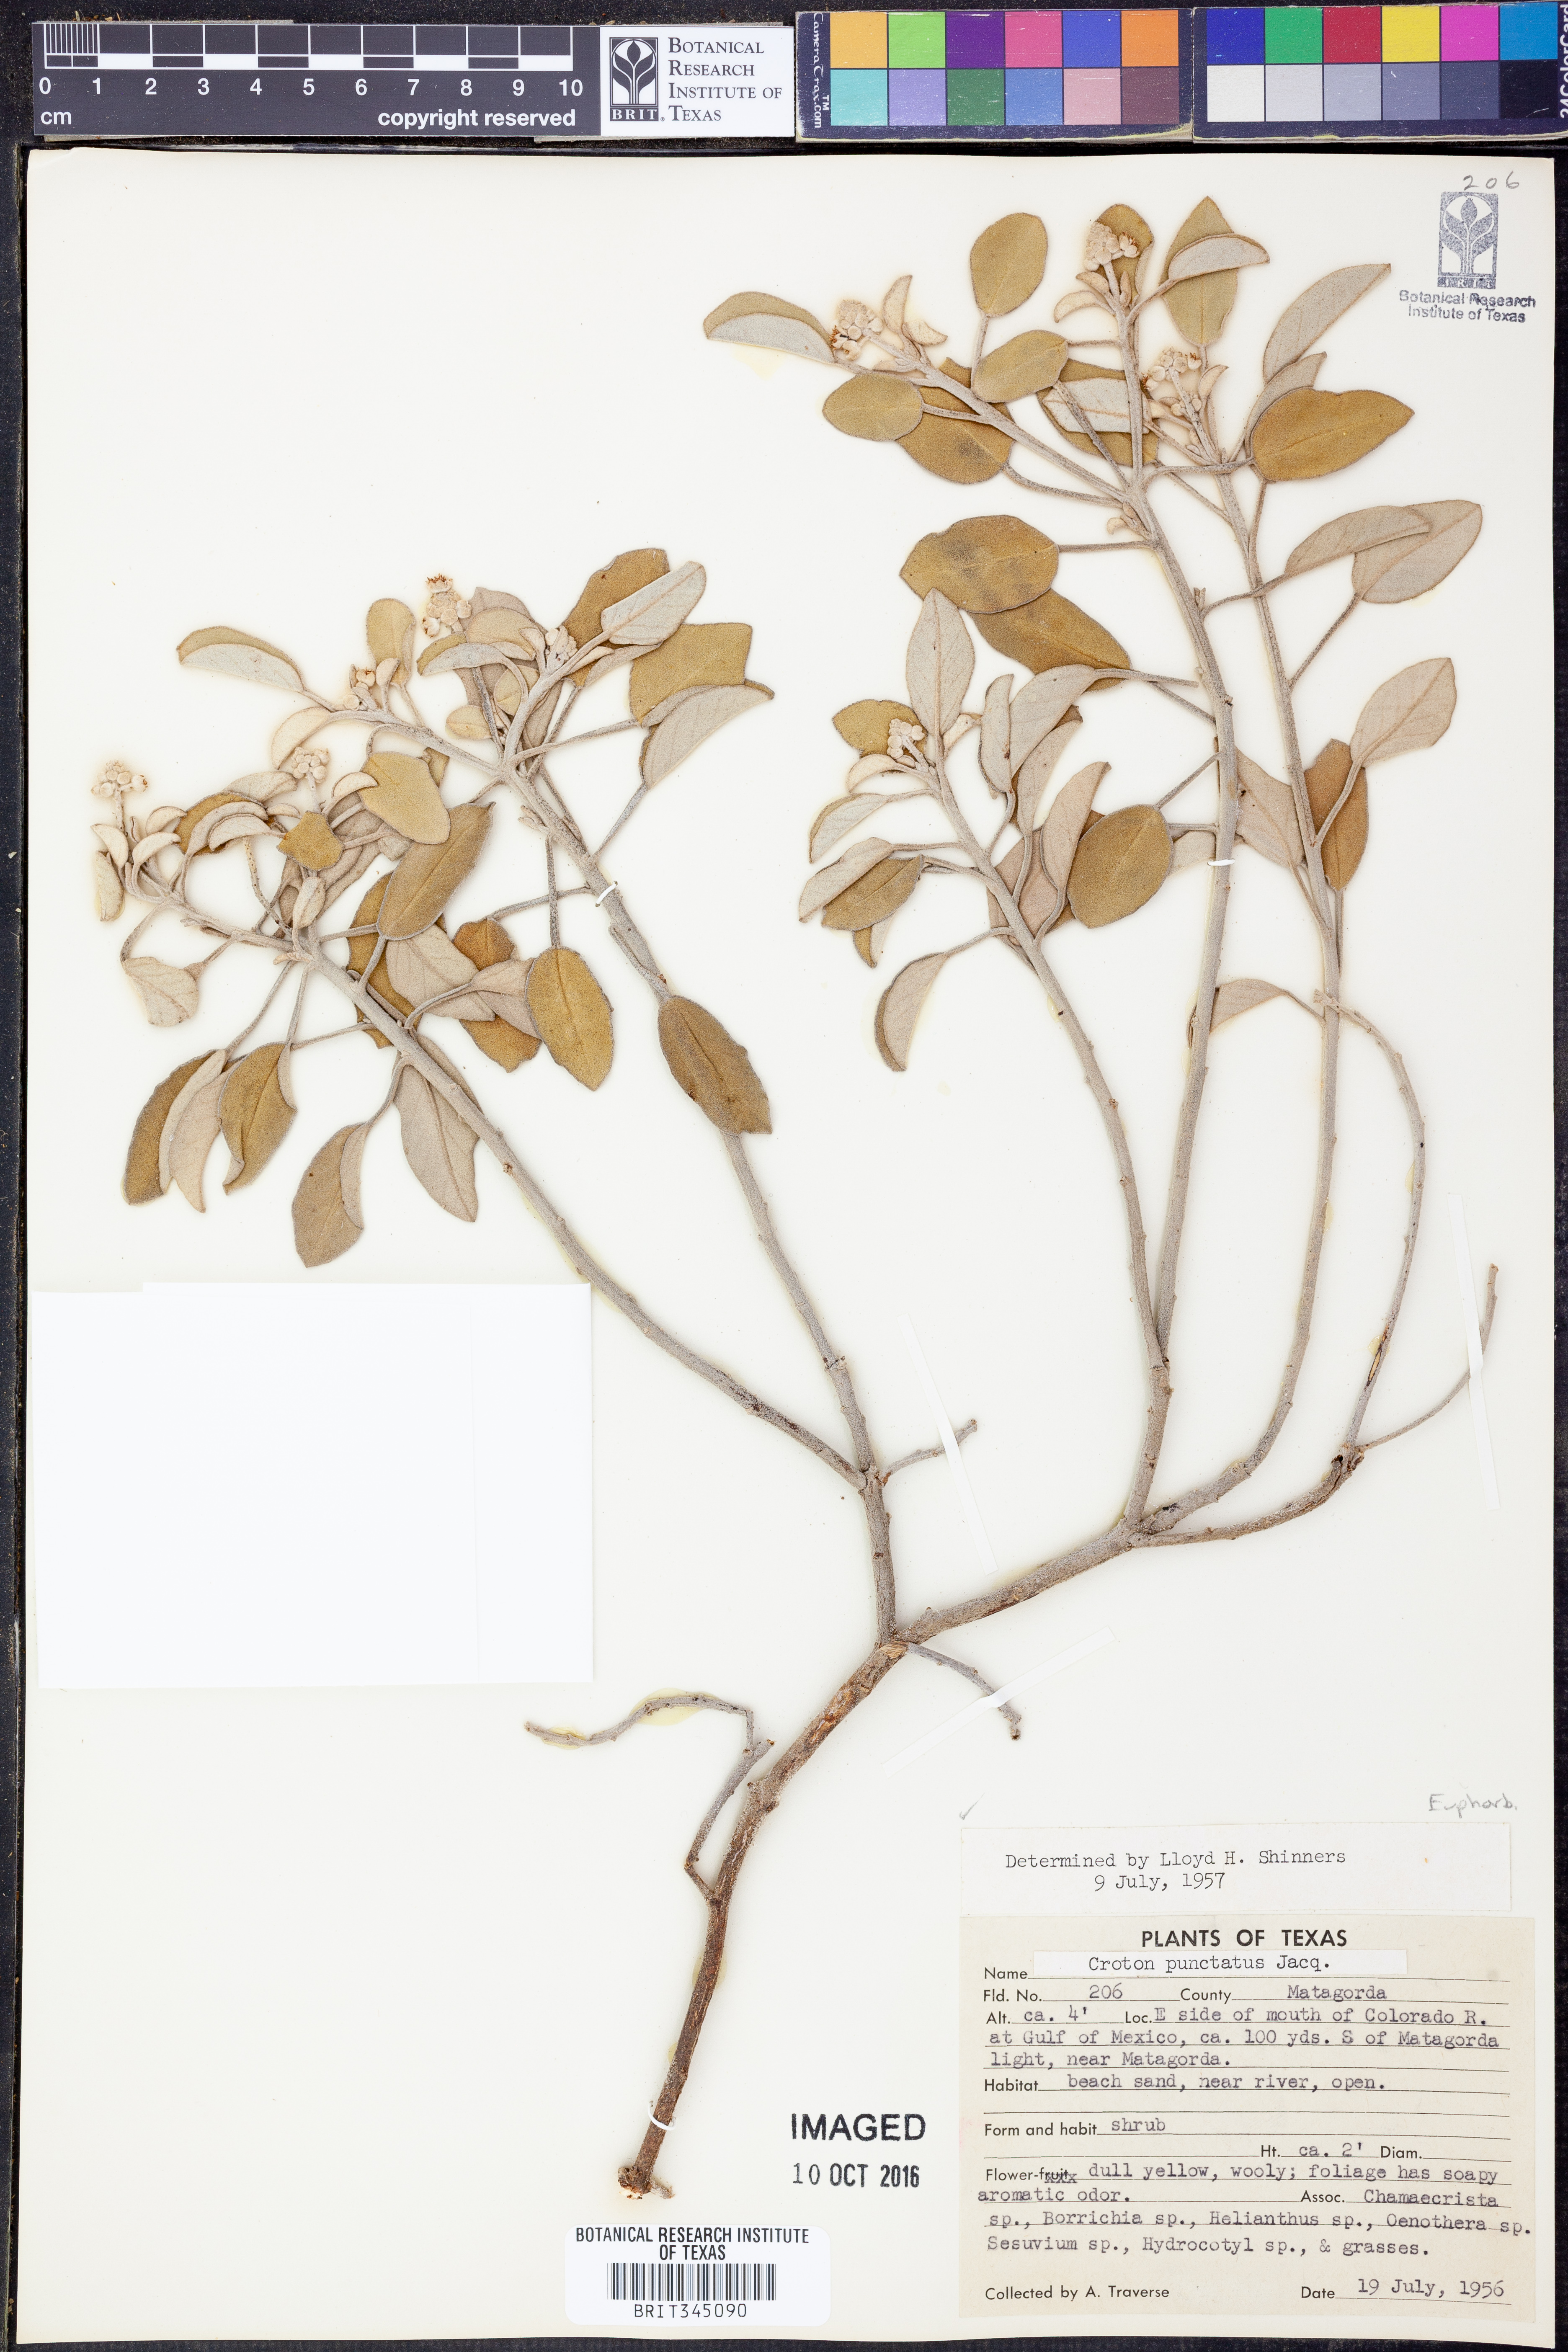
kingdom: Plantae
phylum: Tracheophyta
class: Magnoliopsida
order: Malpighiales
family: Euphorbiaceae
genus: Croton
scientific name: Croton punctatus
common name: Beach-tea
